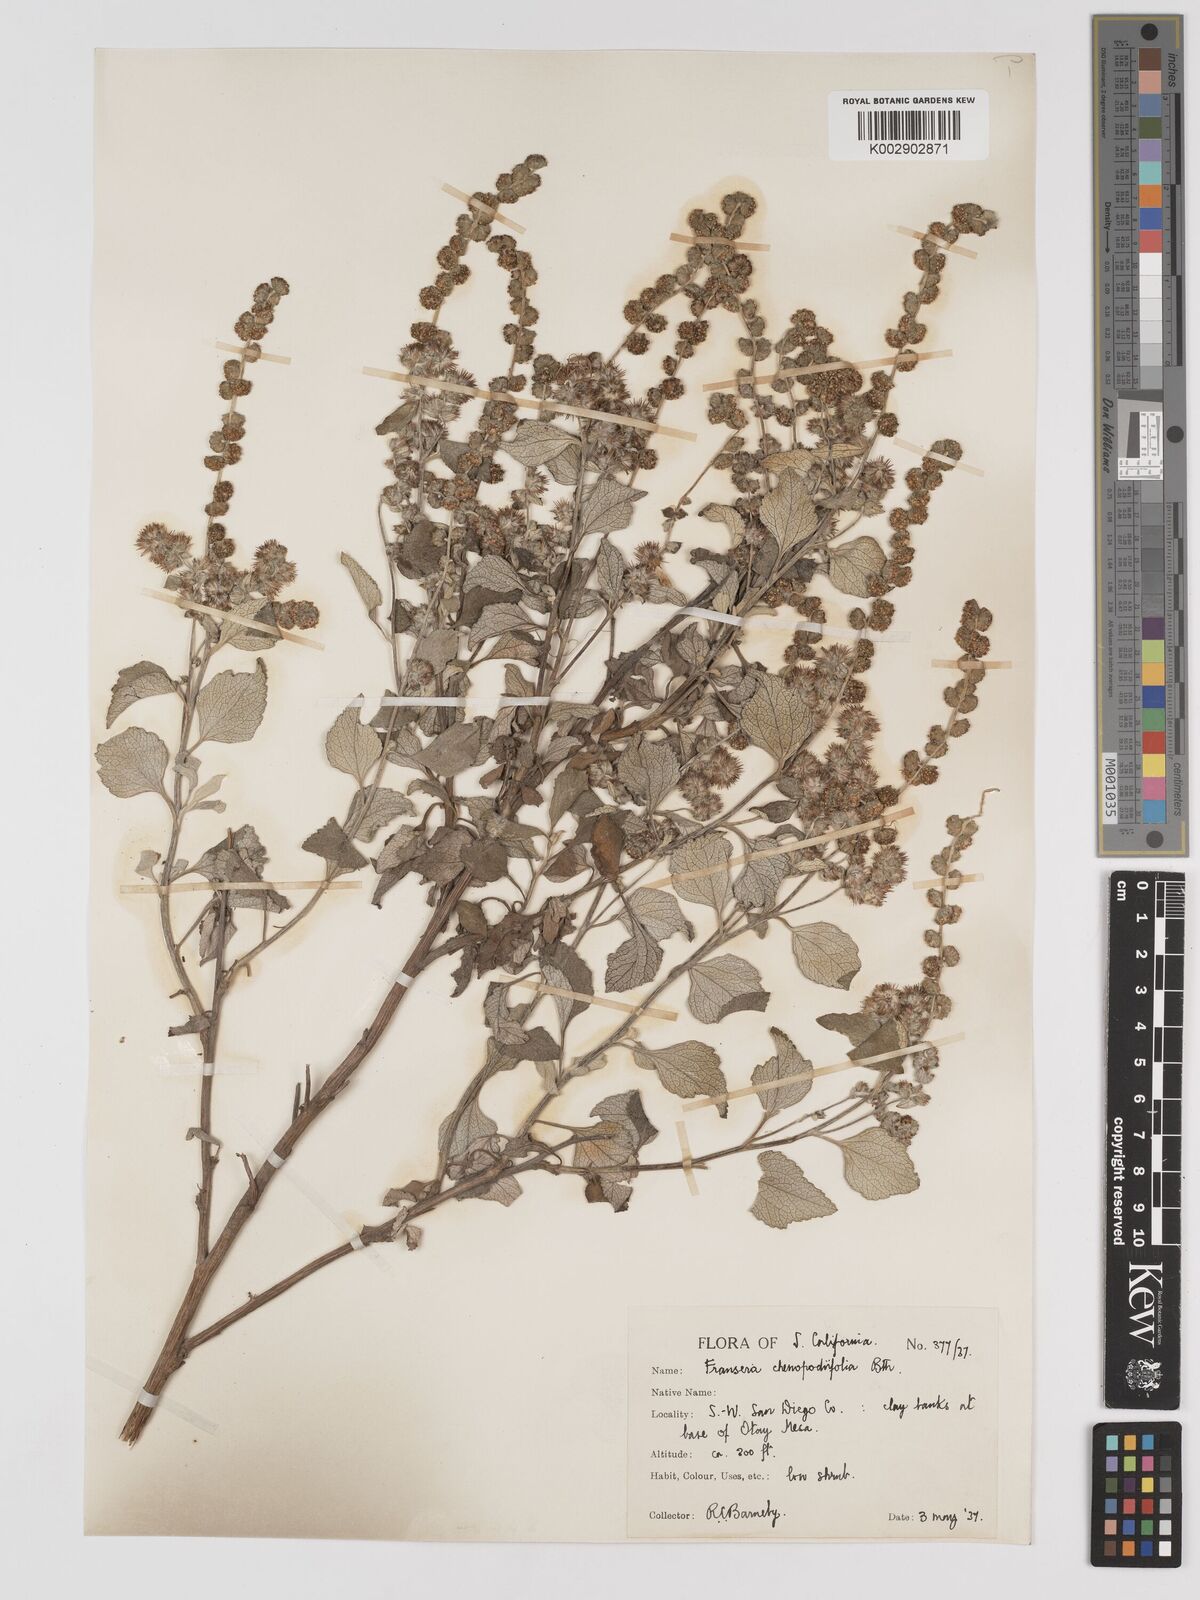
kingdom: Plantae
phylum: Tracheophyta
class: Magnoliopsida
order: Asterales
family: Asteraceae
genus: Ambrosia
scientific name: Ambrosia chenopodiifolia
